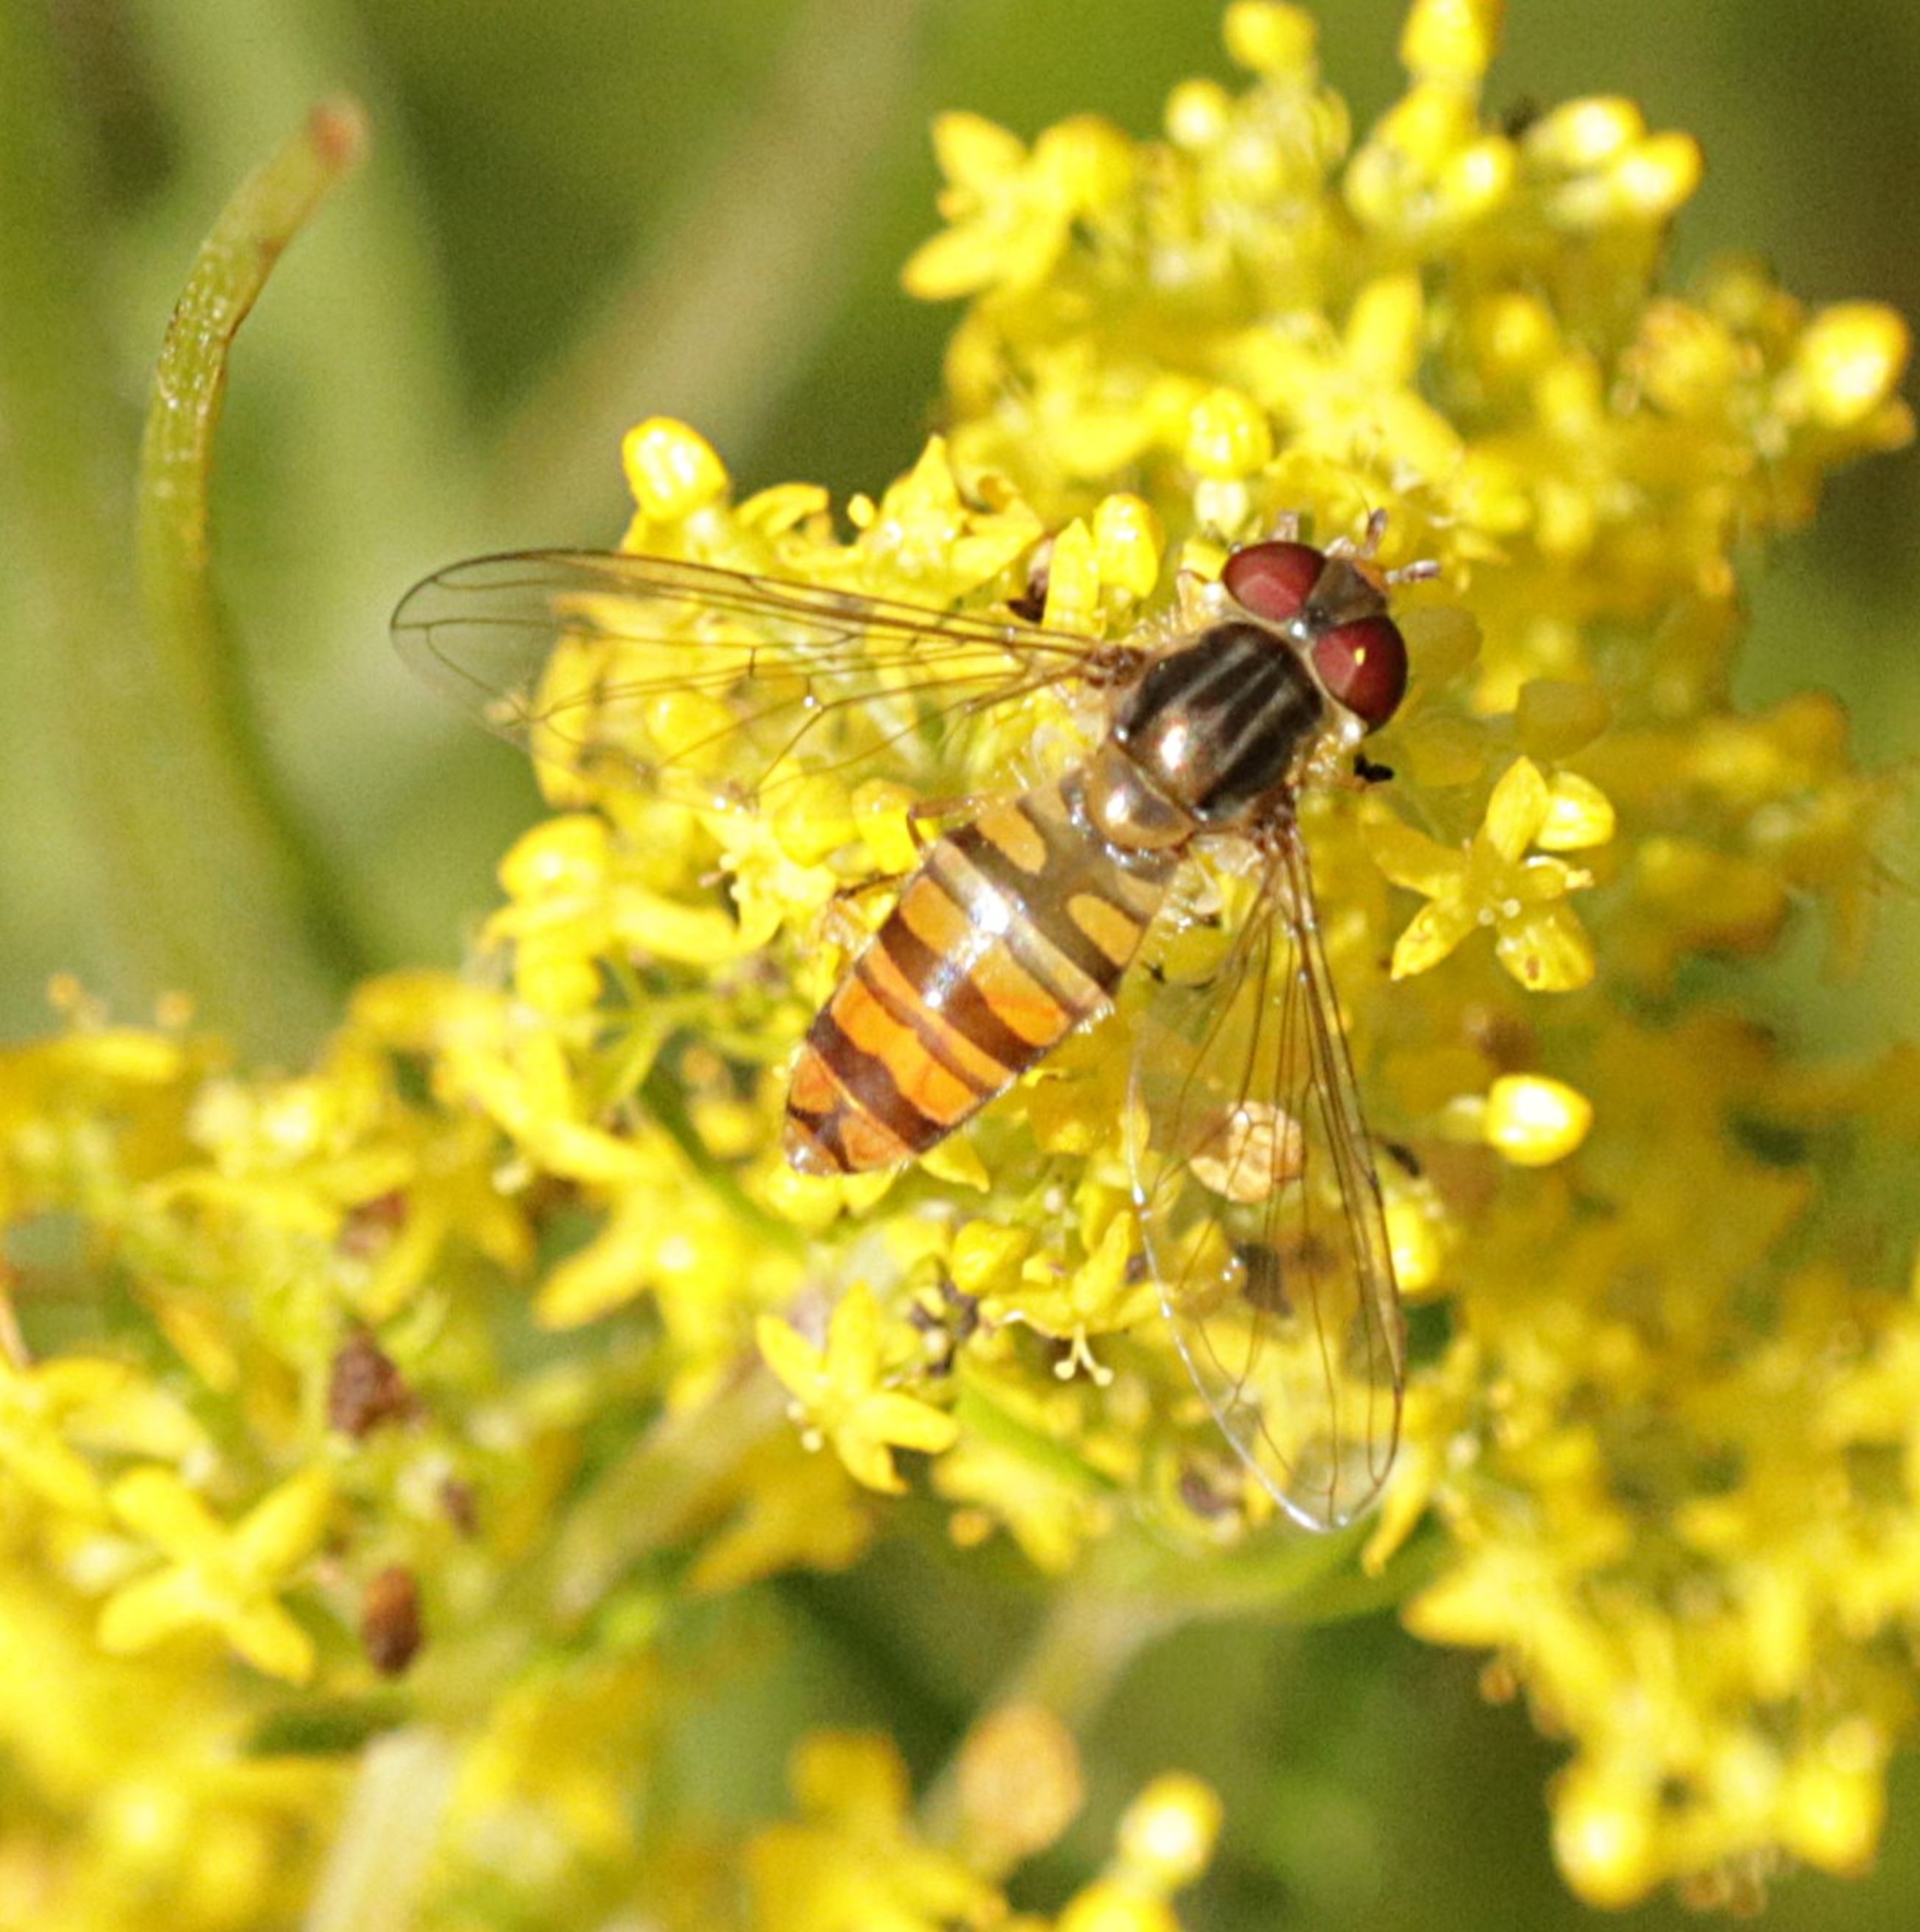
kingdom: Animalia
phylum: Arthropoda
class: Insecta
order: Diptera
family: Syrphidae
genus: Episyrphus
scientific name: Episyrphus balteatus
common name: Dobbeltbåndet svirreflue
